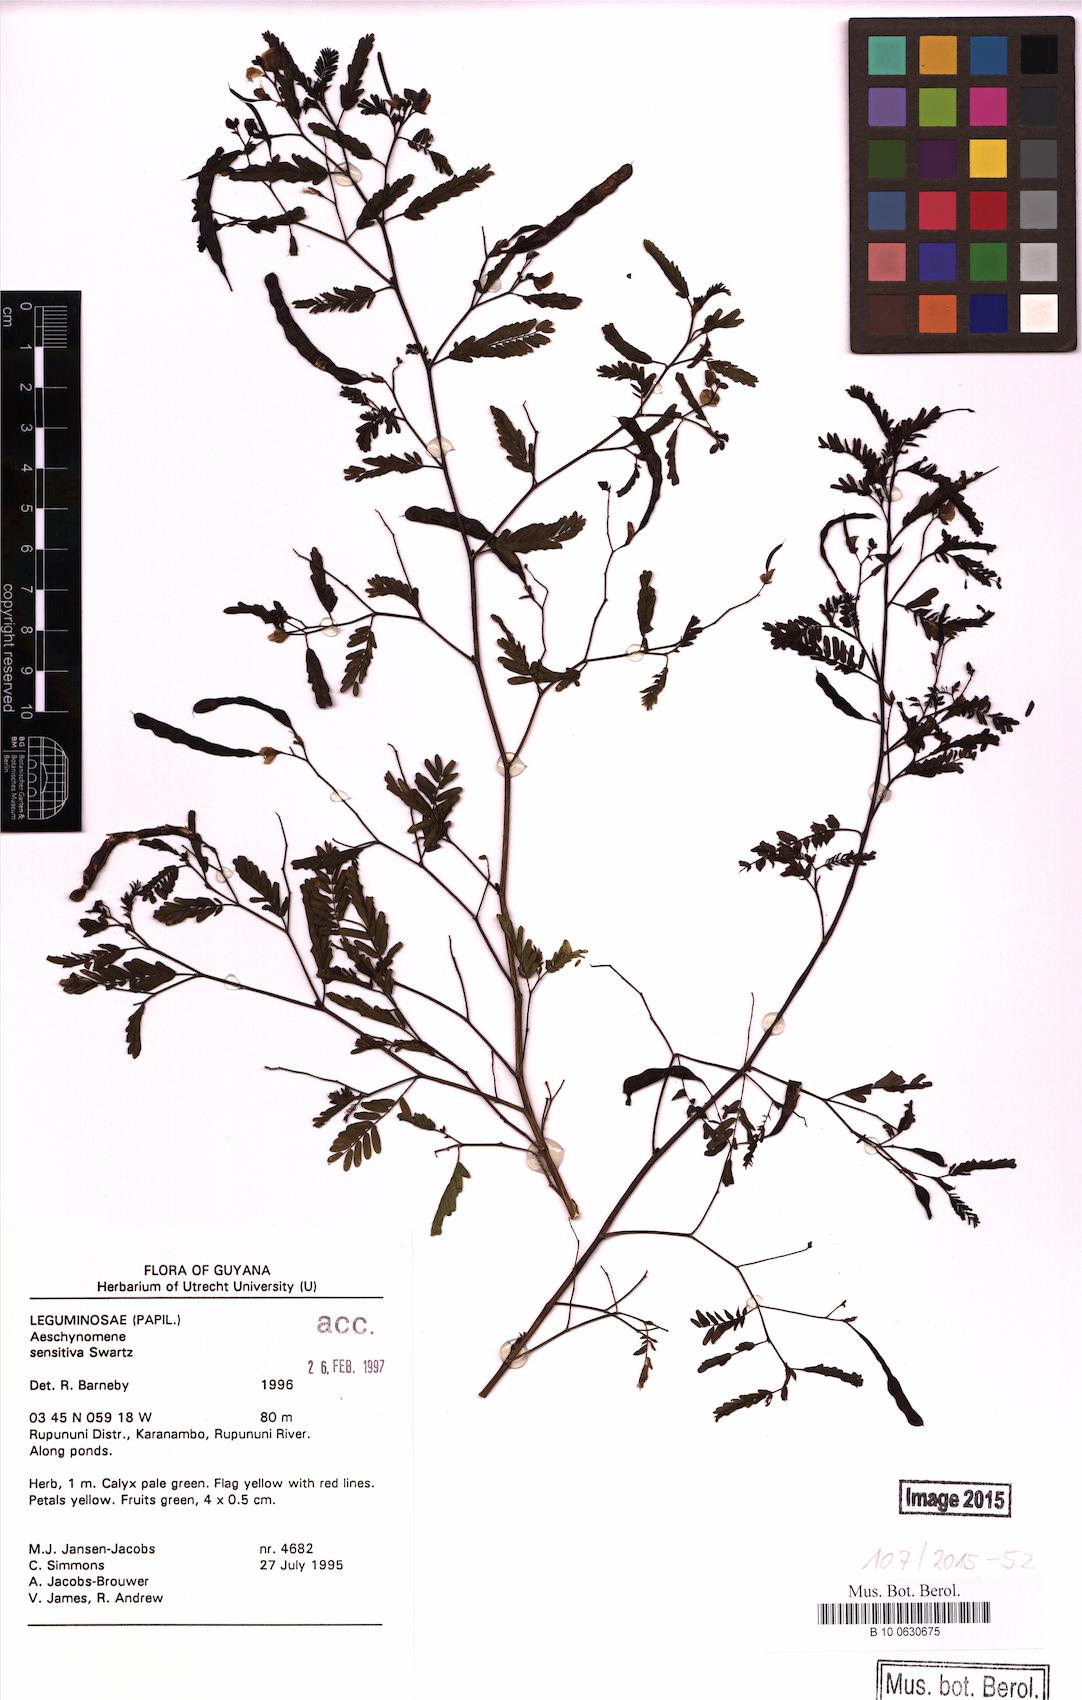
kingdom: Plantae
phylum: Tracheophyta
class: Magnoliopsida
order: Fabales
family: Fabaceae
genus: Aeschynomene
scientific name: Aeschynomene sensitiva
